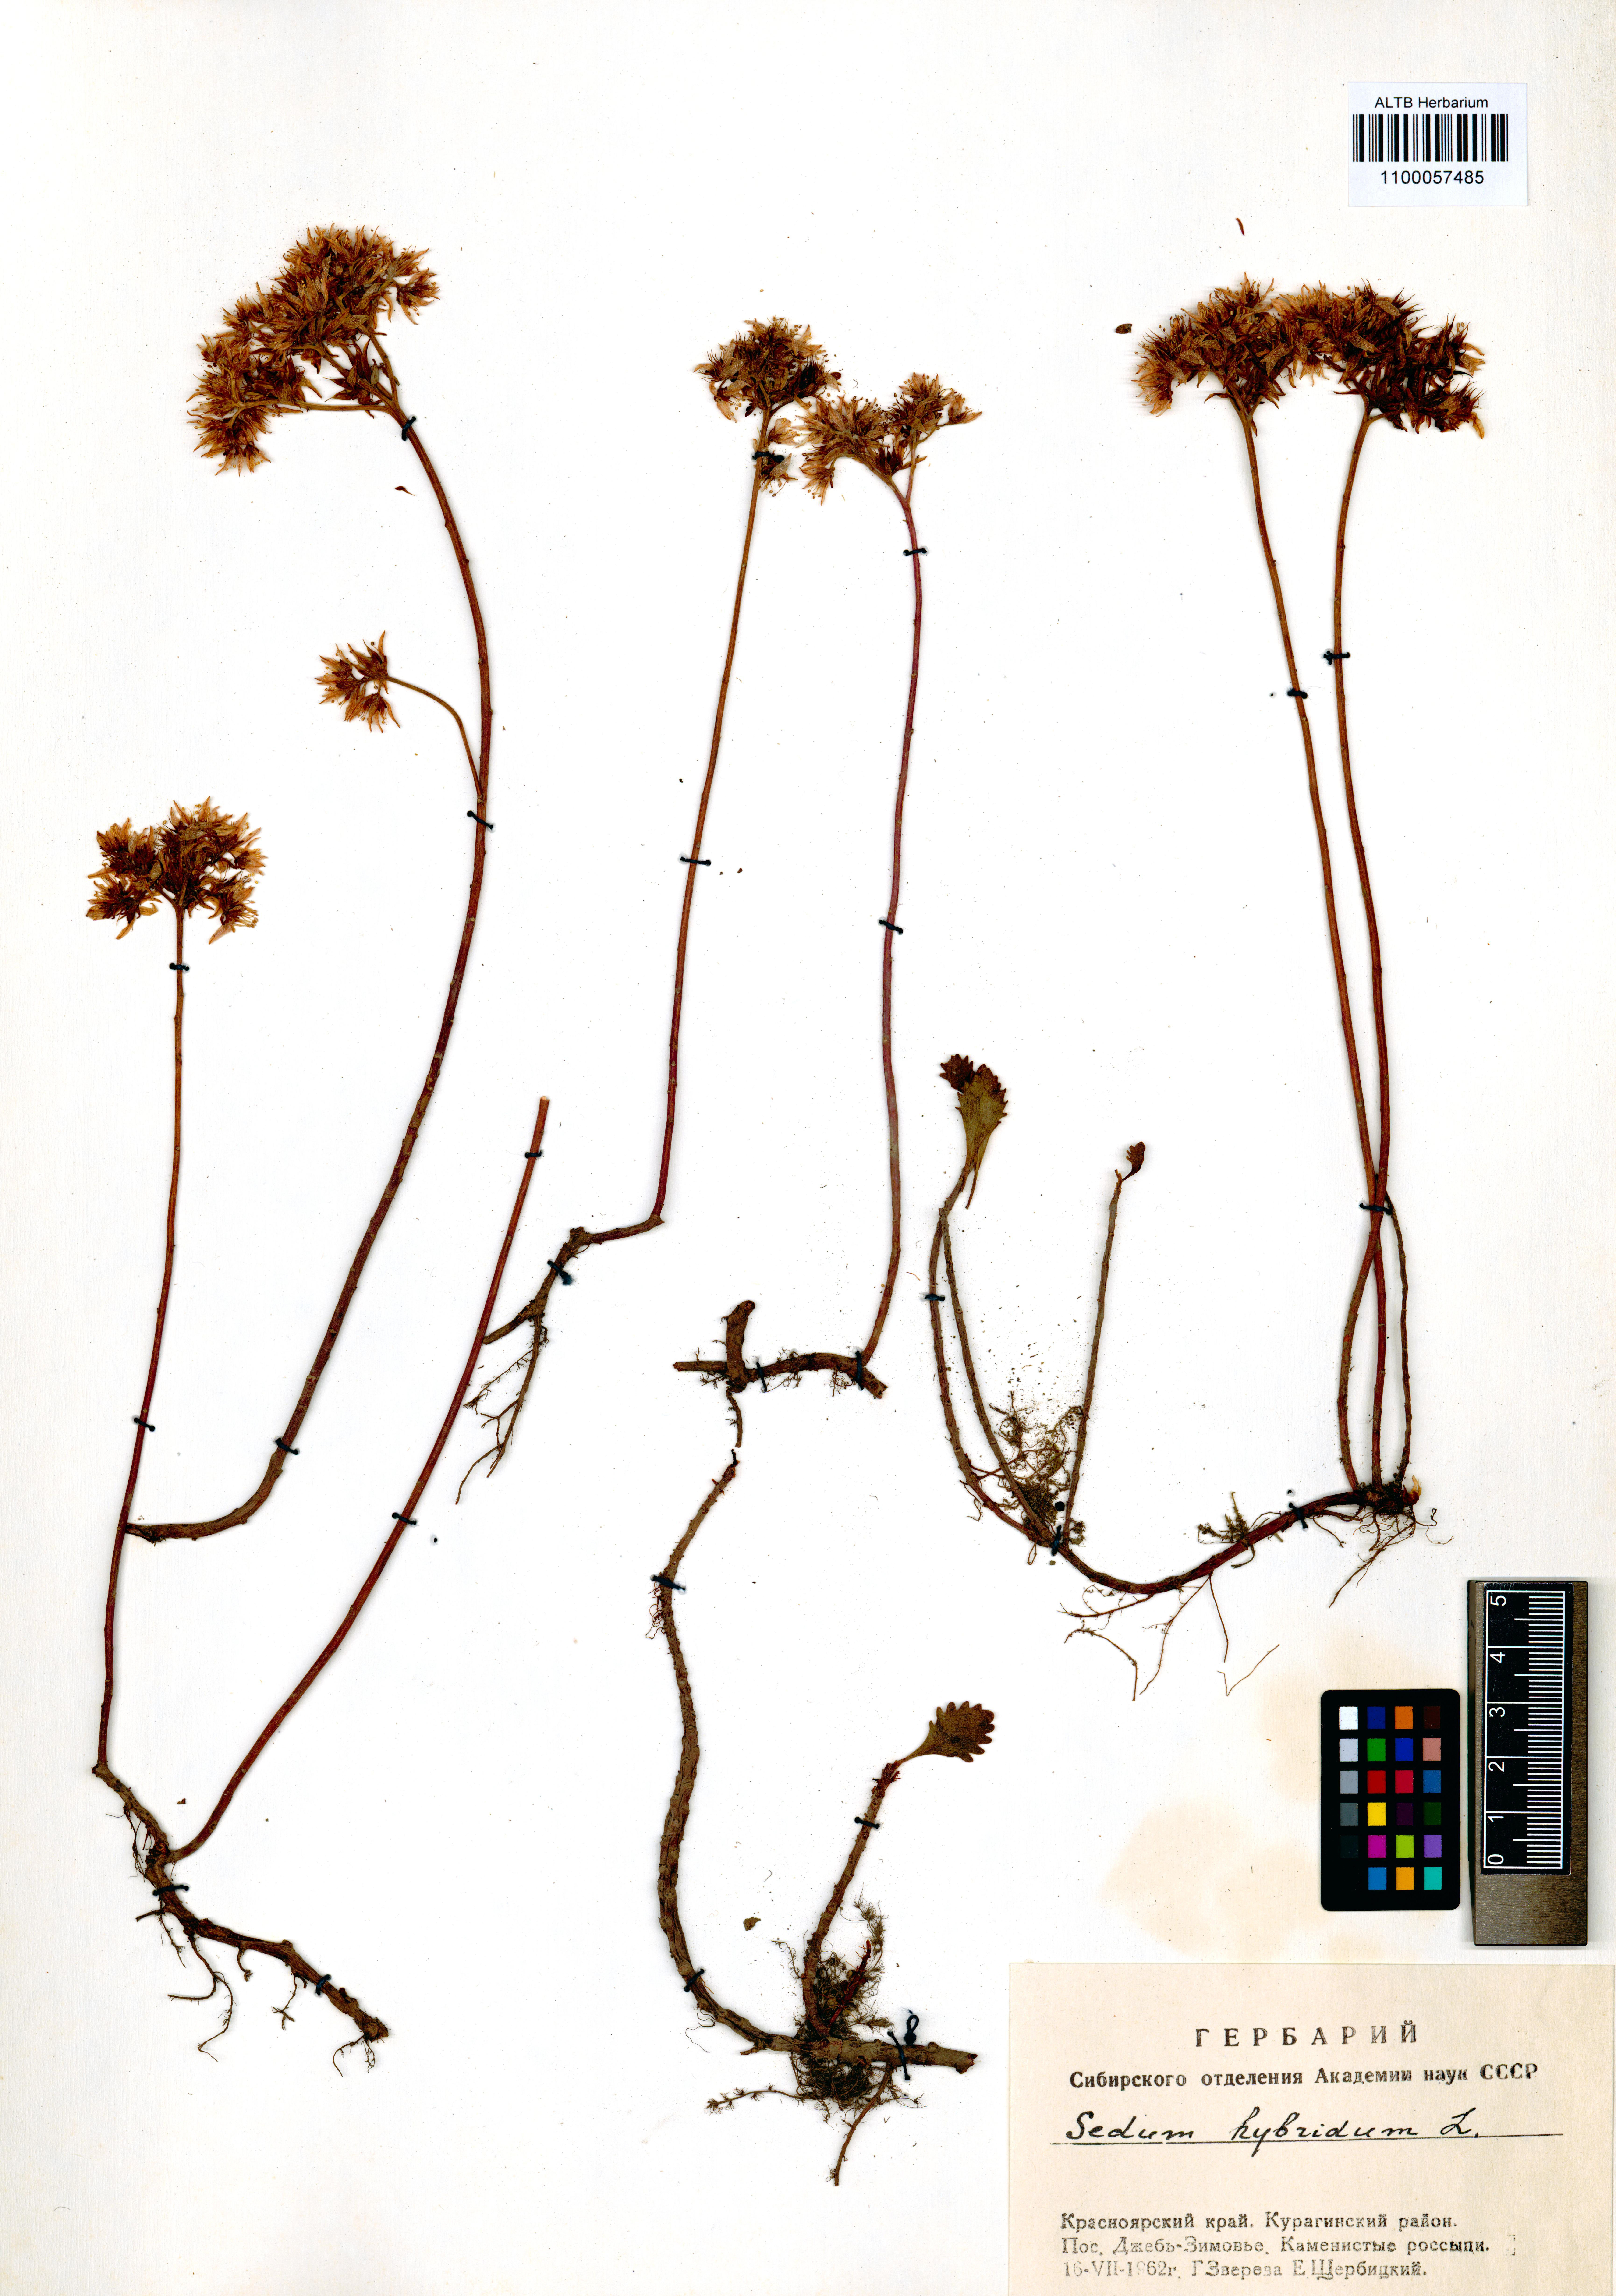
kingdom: Plantae
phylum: Tracheophyta
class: Magnoliopsida
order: Saxifragales
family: Crassulaceae
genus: Phedimus
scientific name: Phedimus hybridus
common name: Hybrid stonecrop
